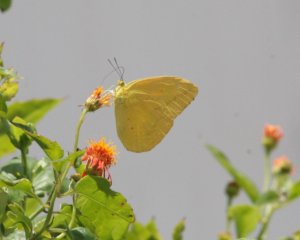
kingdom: Animalia
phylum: Arthropoda
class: Insecta
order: Lepidoptera
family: Pieridae
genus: Phoebis
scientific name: Phoebis agarithe
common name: Large Orange Sulphur
